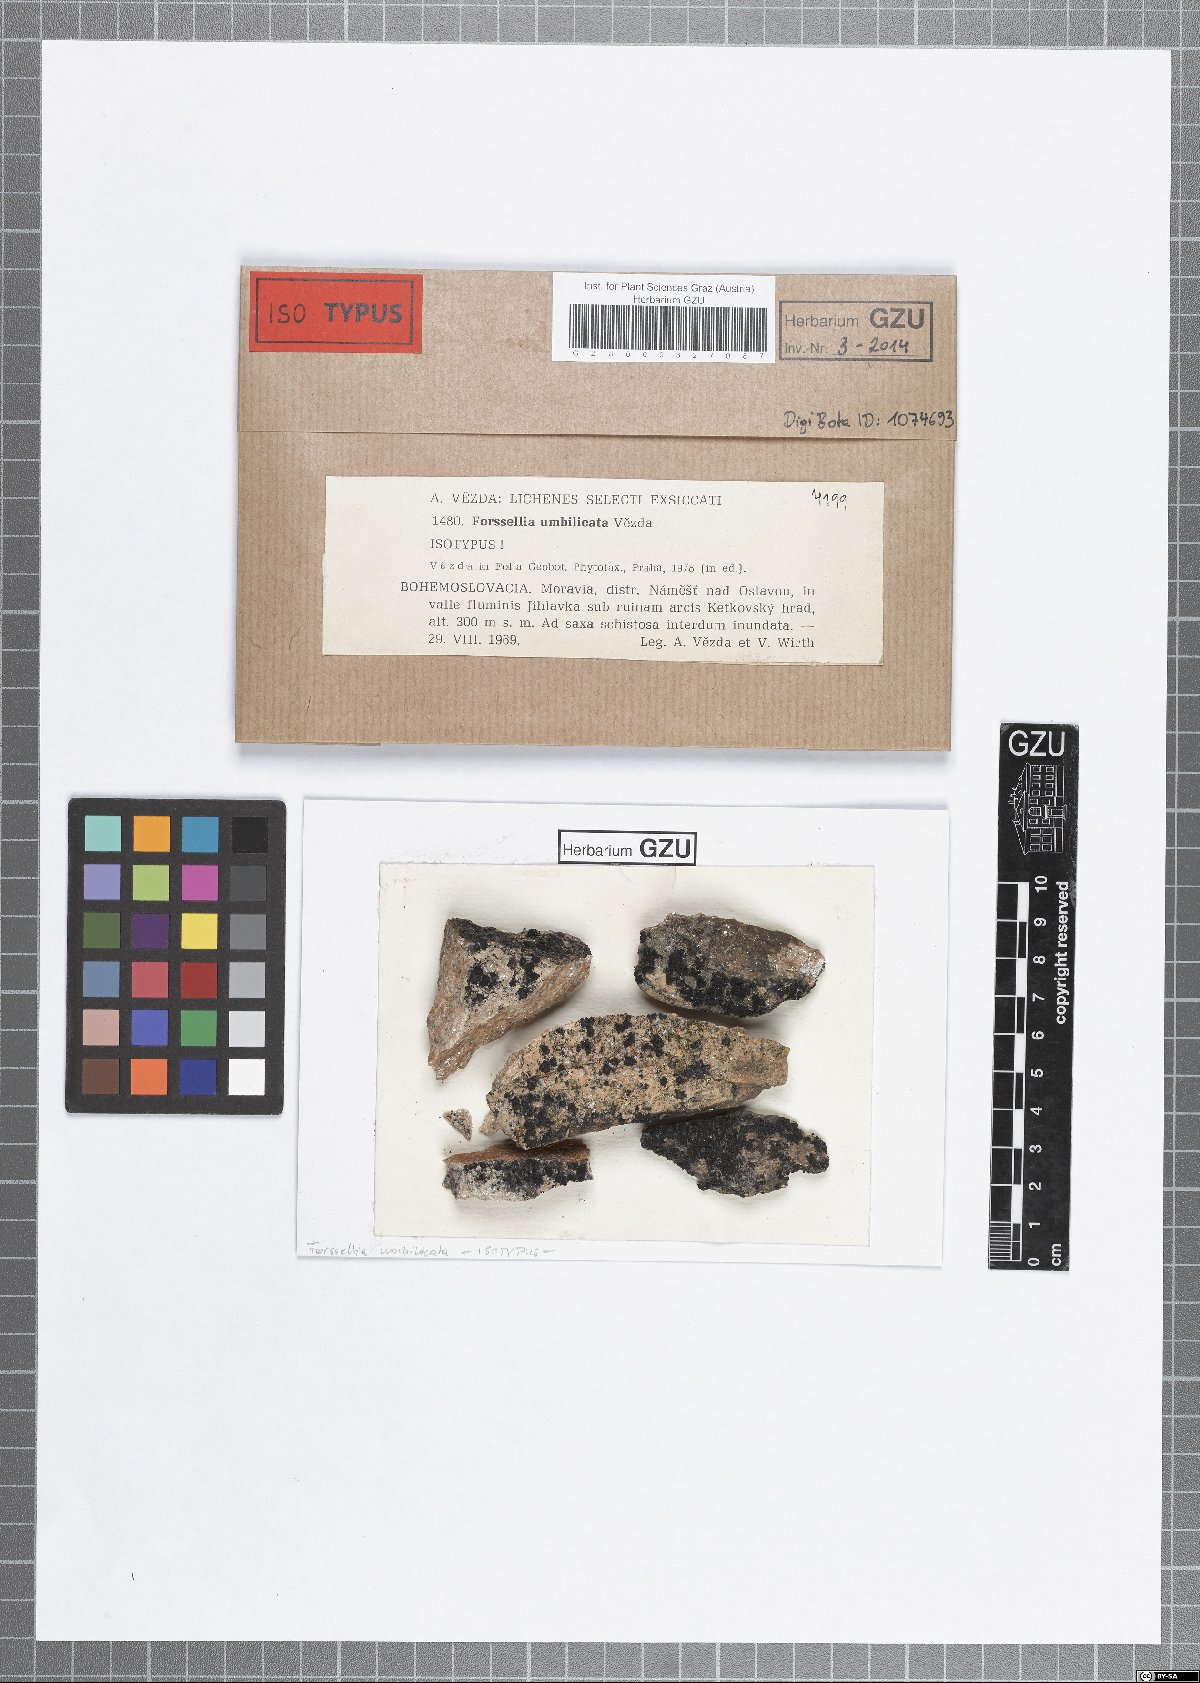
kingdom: Fungi
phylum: Ascomycota
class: Lichinomycetes
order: Lichinales
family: Lichinaceae
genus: Pterygiopsis
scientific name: Pterygiopsis umbilicata
